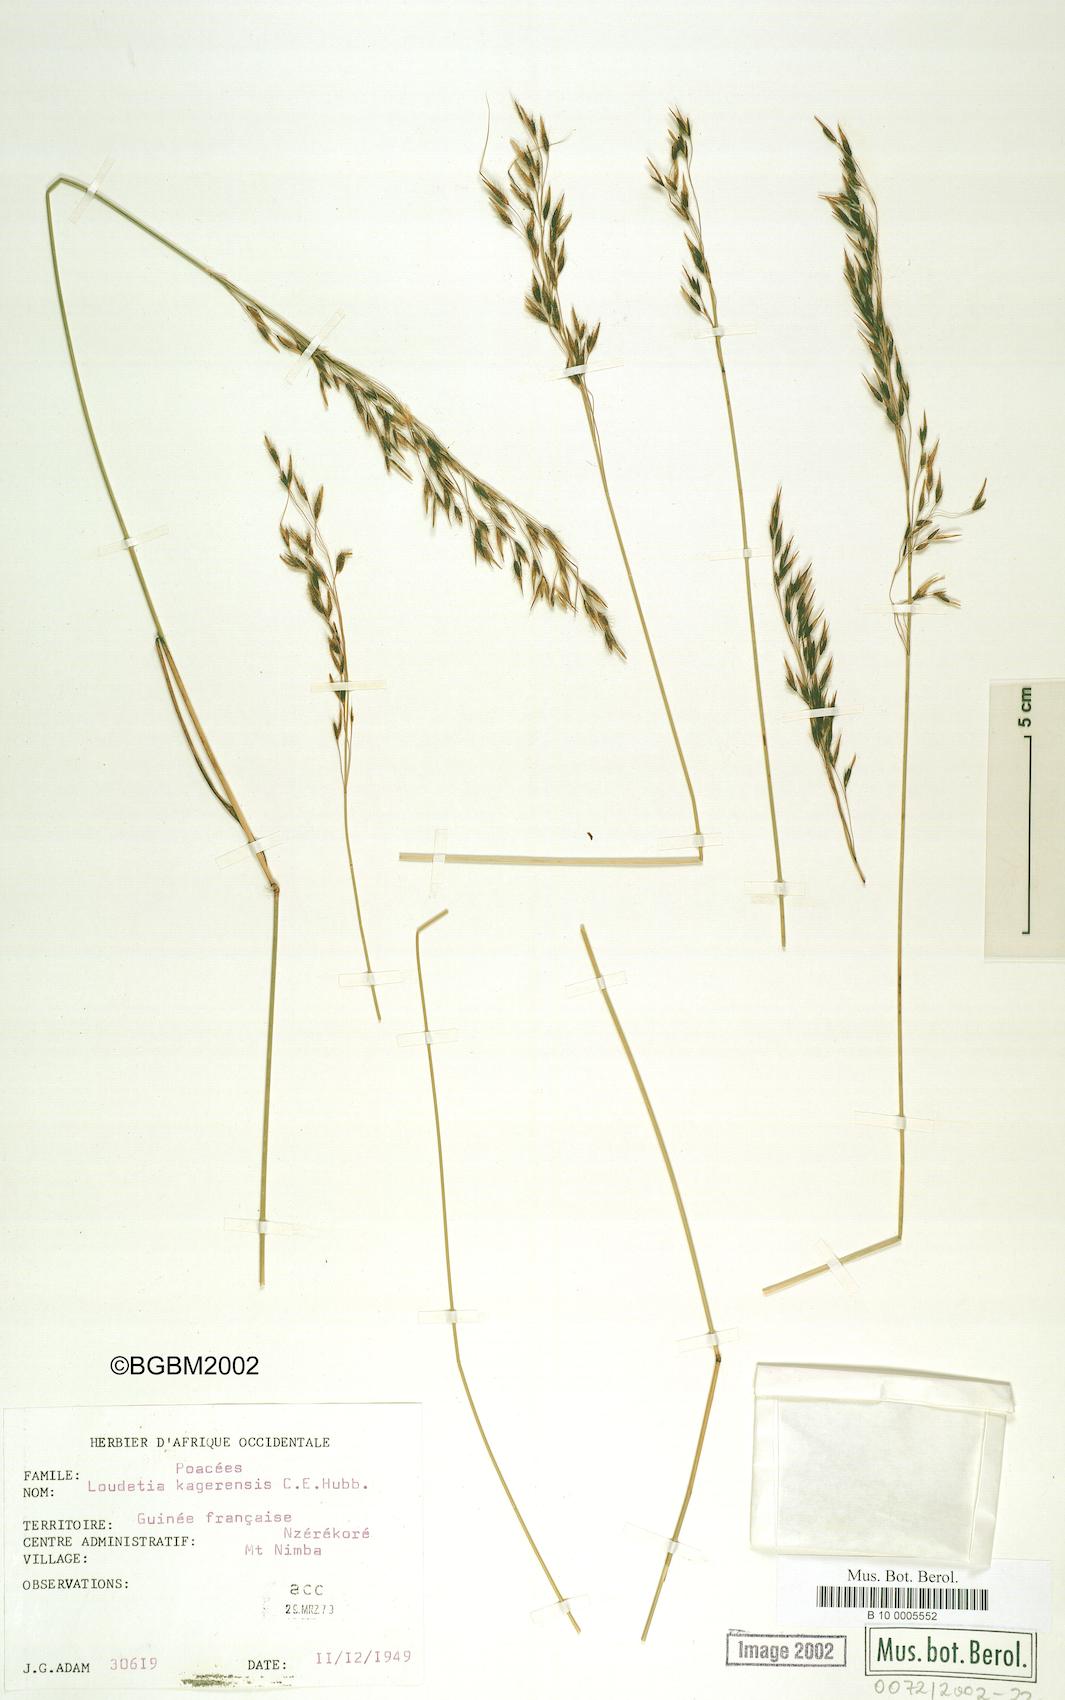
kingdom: Plantae
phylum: Tracheophyta
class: Liliopsida
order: Poales
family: Poaceae
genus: Loudetia
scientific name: Loudetia kagerensis
